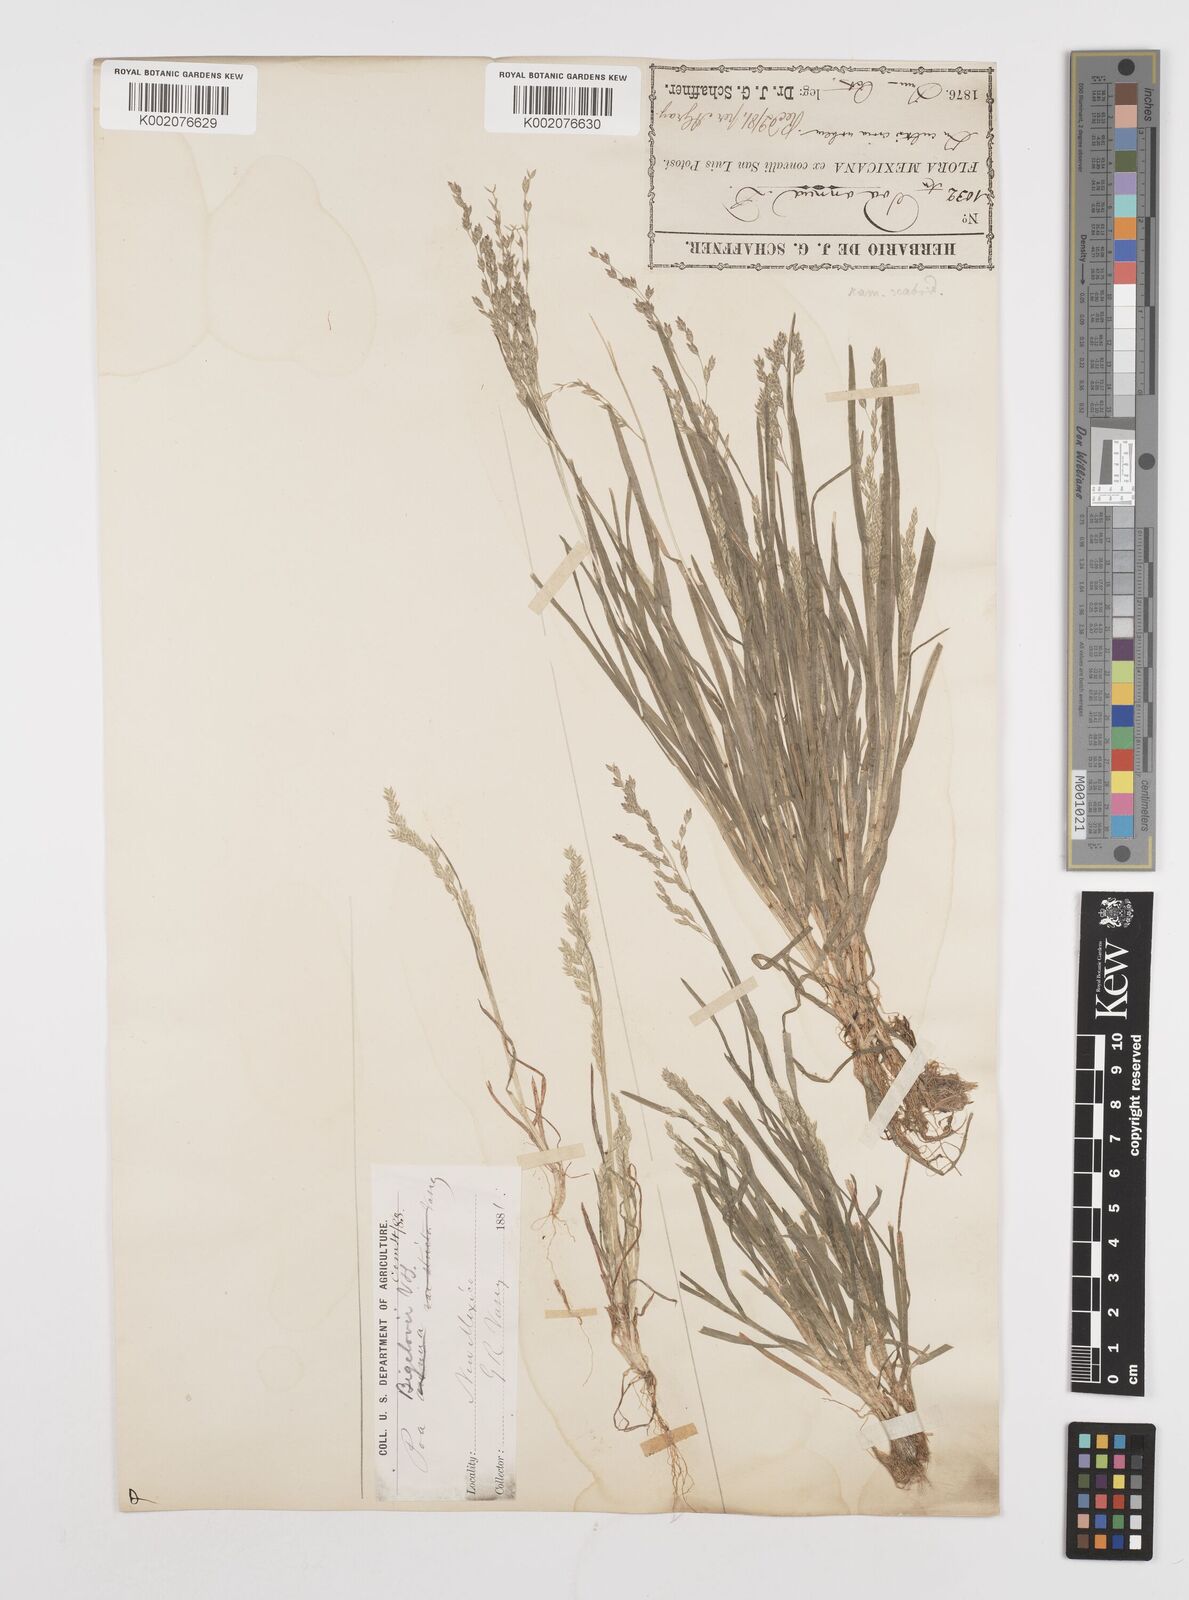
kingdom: Plantae
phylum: Tracheophyta
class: Liliopsida
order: Poales
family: Poaceae
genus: Poa
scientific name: Poa bigelovii
